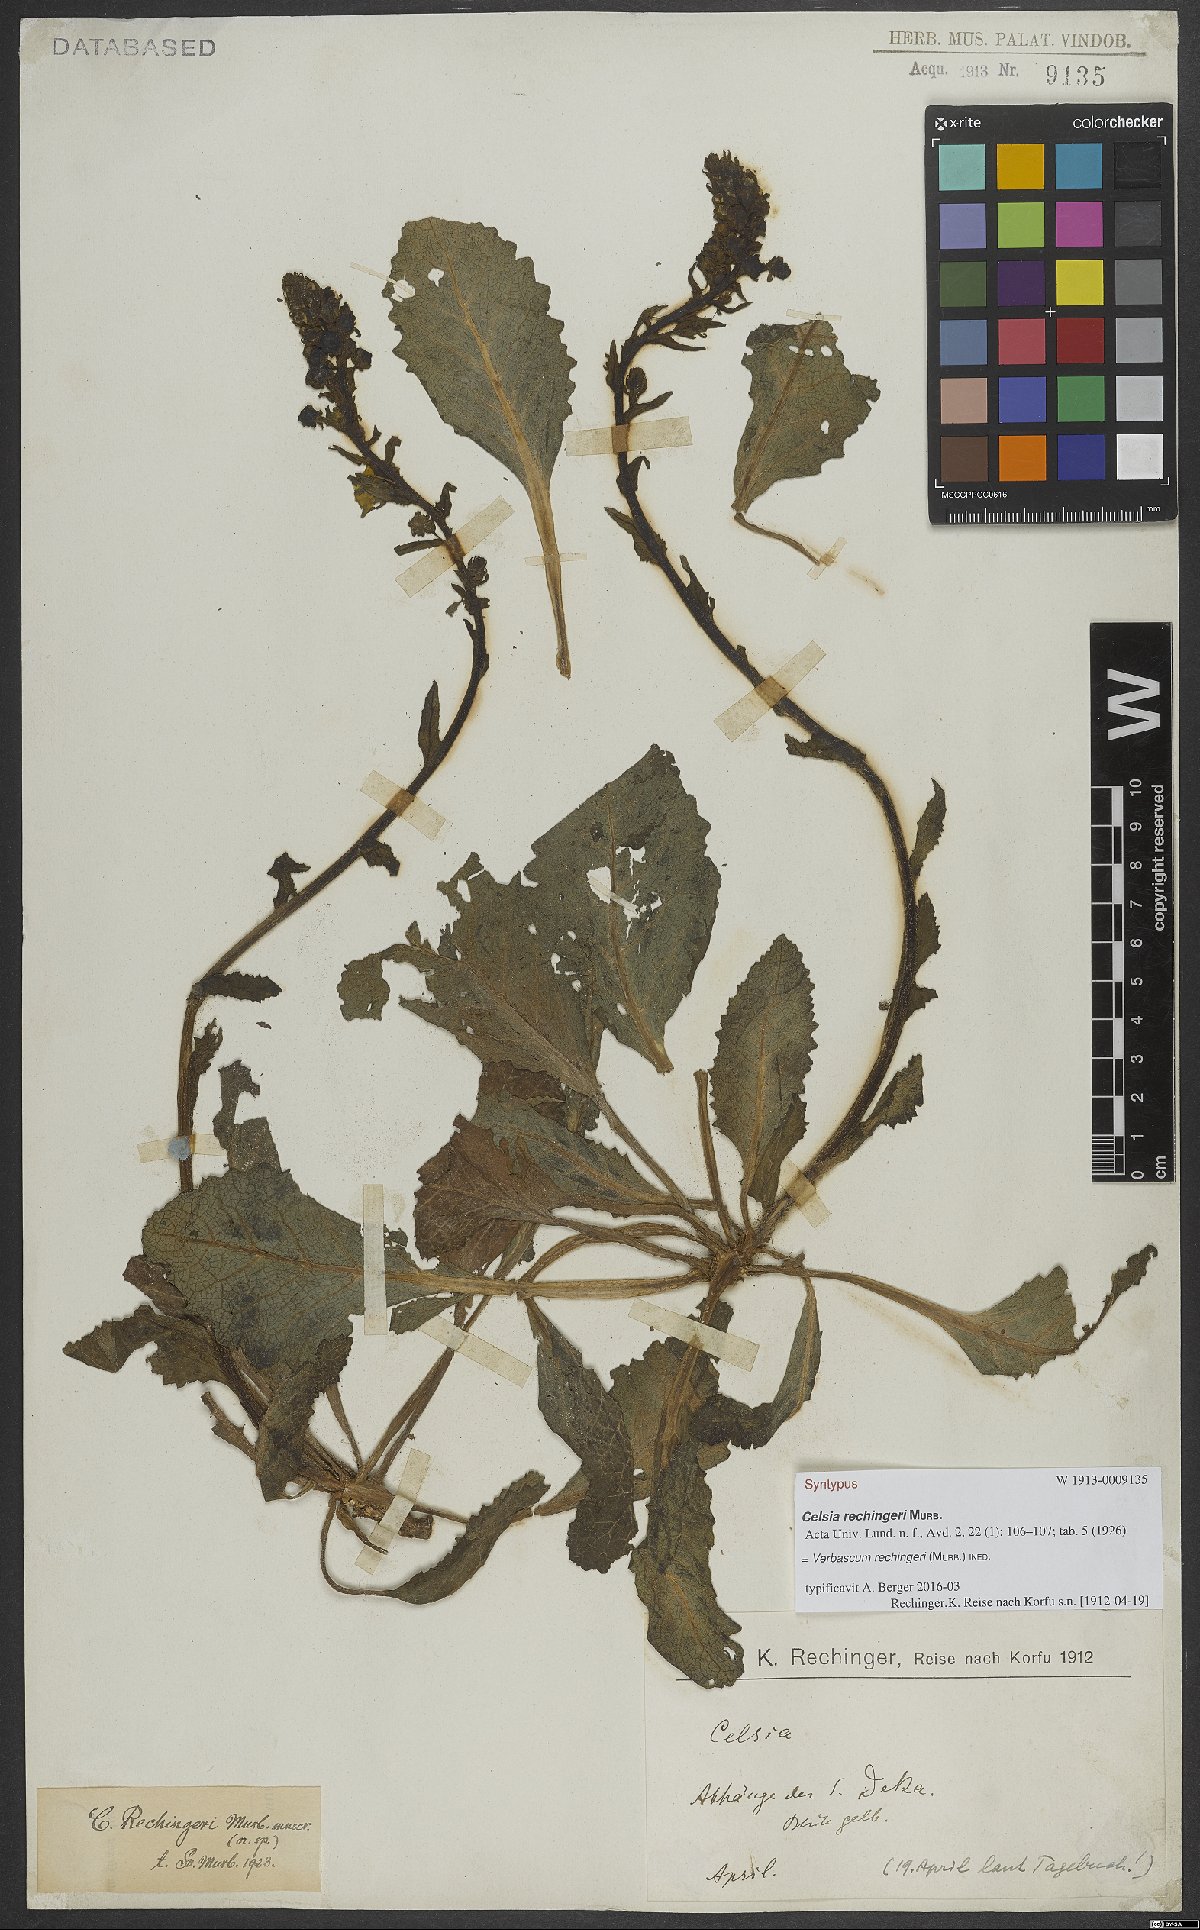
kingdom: Plantae
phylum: Tracheophyta
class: Magnoliopsida
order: Lamiales
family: Scrophulariaceae
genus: Verbascum
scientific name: Verbascum
